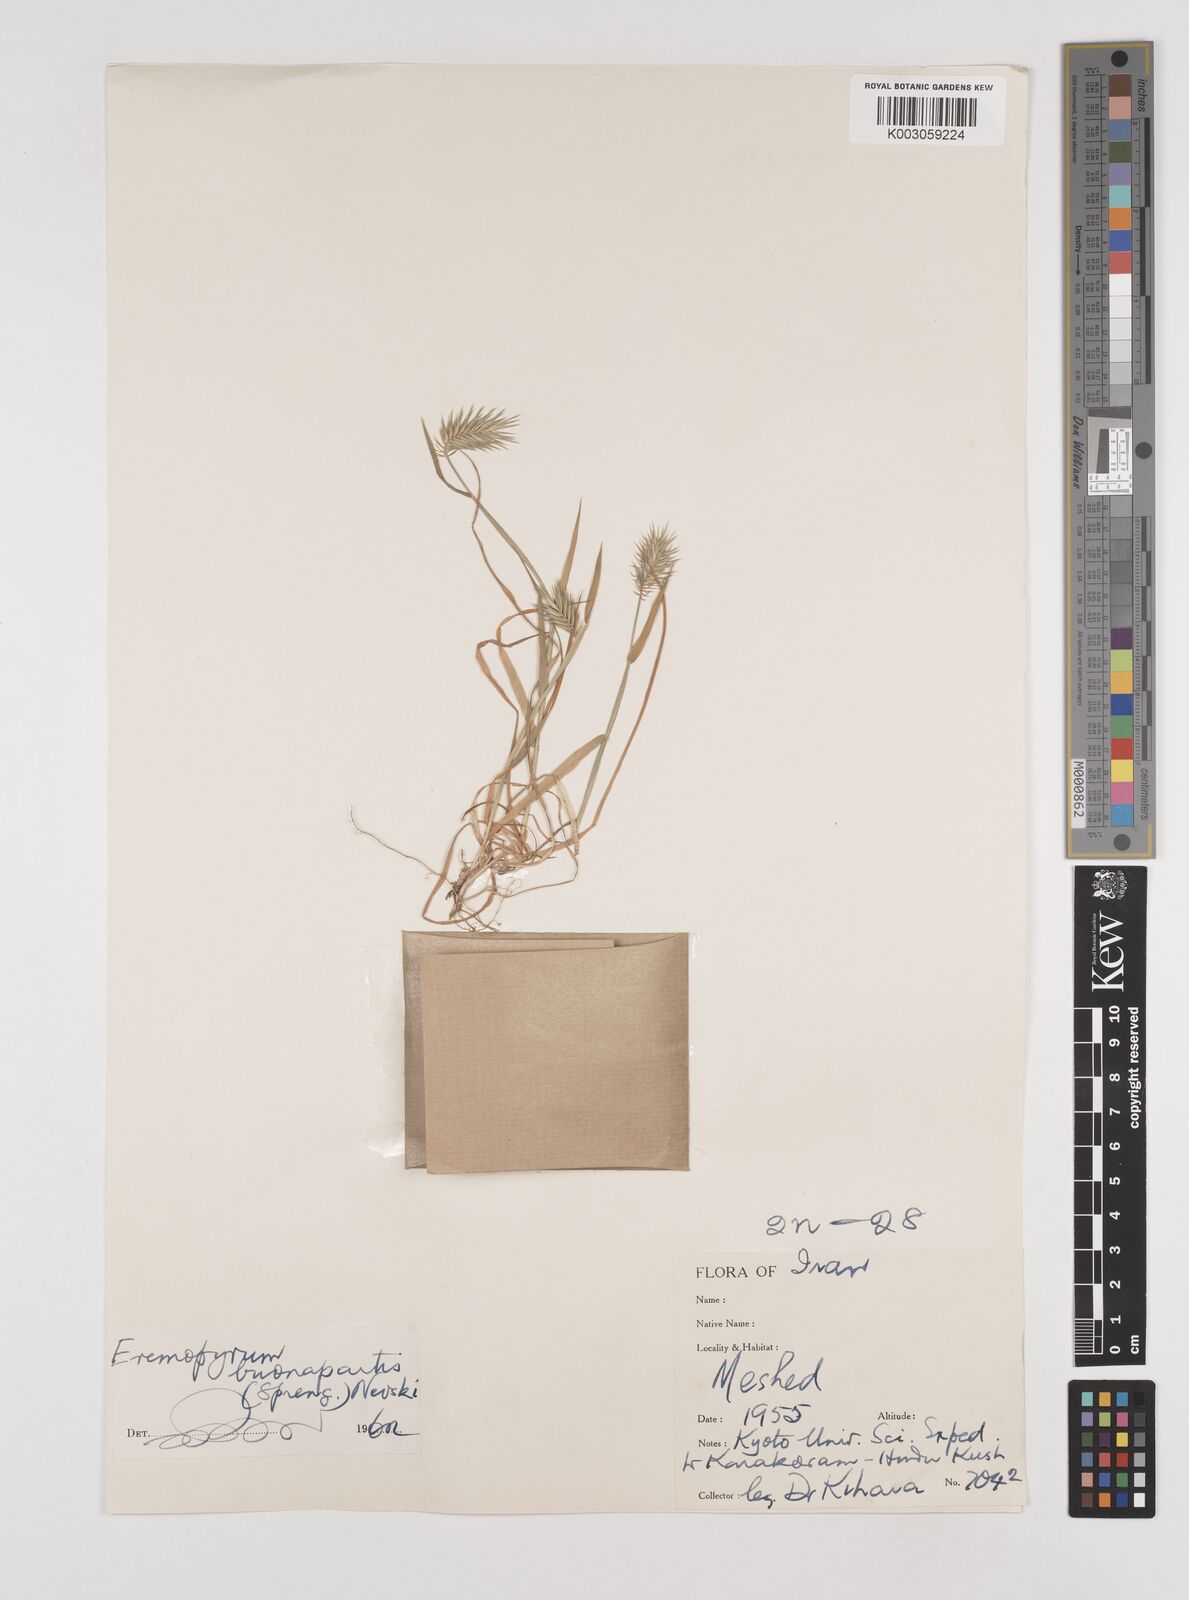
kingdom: Plantae
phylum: Tracheophyta
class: Liliopsida
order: Poales
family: Poaceae
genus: Eremopyrum
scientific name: Eremopyrum bonaepartis
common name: Tapertip false wheatgrass
